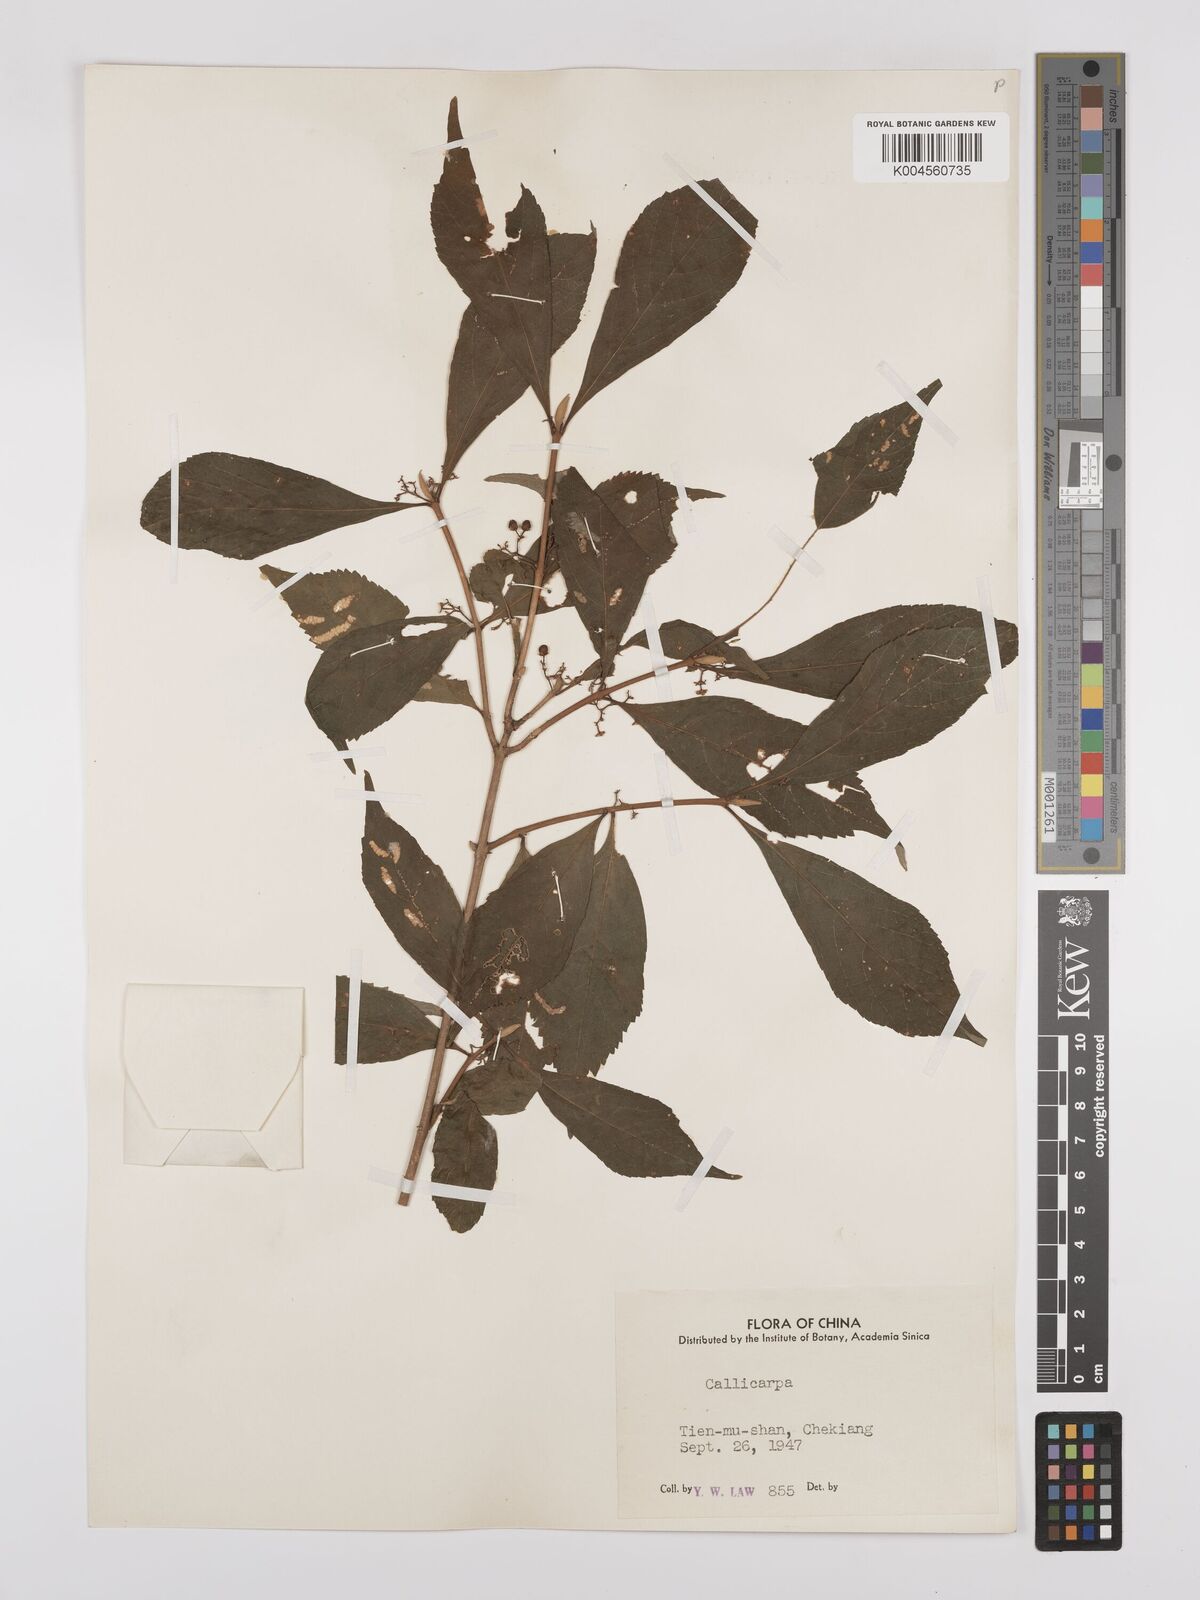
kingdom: Plantae
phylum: Tracheophyta
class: Magnoliopsida
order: Lamiales
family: Lamiaceae
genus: Callicarpa
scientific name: Callicarpa japonica
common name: Japanese beauty-berry
